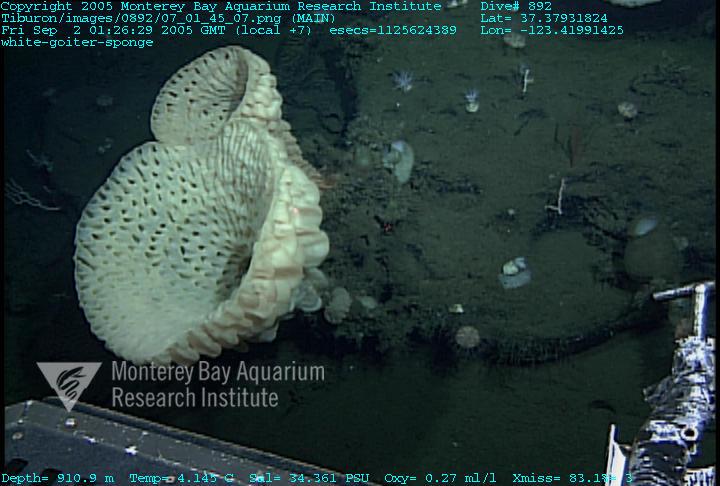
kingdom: Animalia
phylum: Porifera
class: Hexactinellida
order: Sceptrulophora
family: Aphrocallistidae
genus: Heterochone
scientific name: Heterochone calyx
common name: Fingered goblet glass sponge
